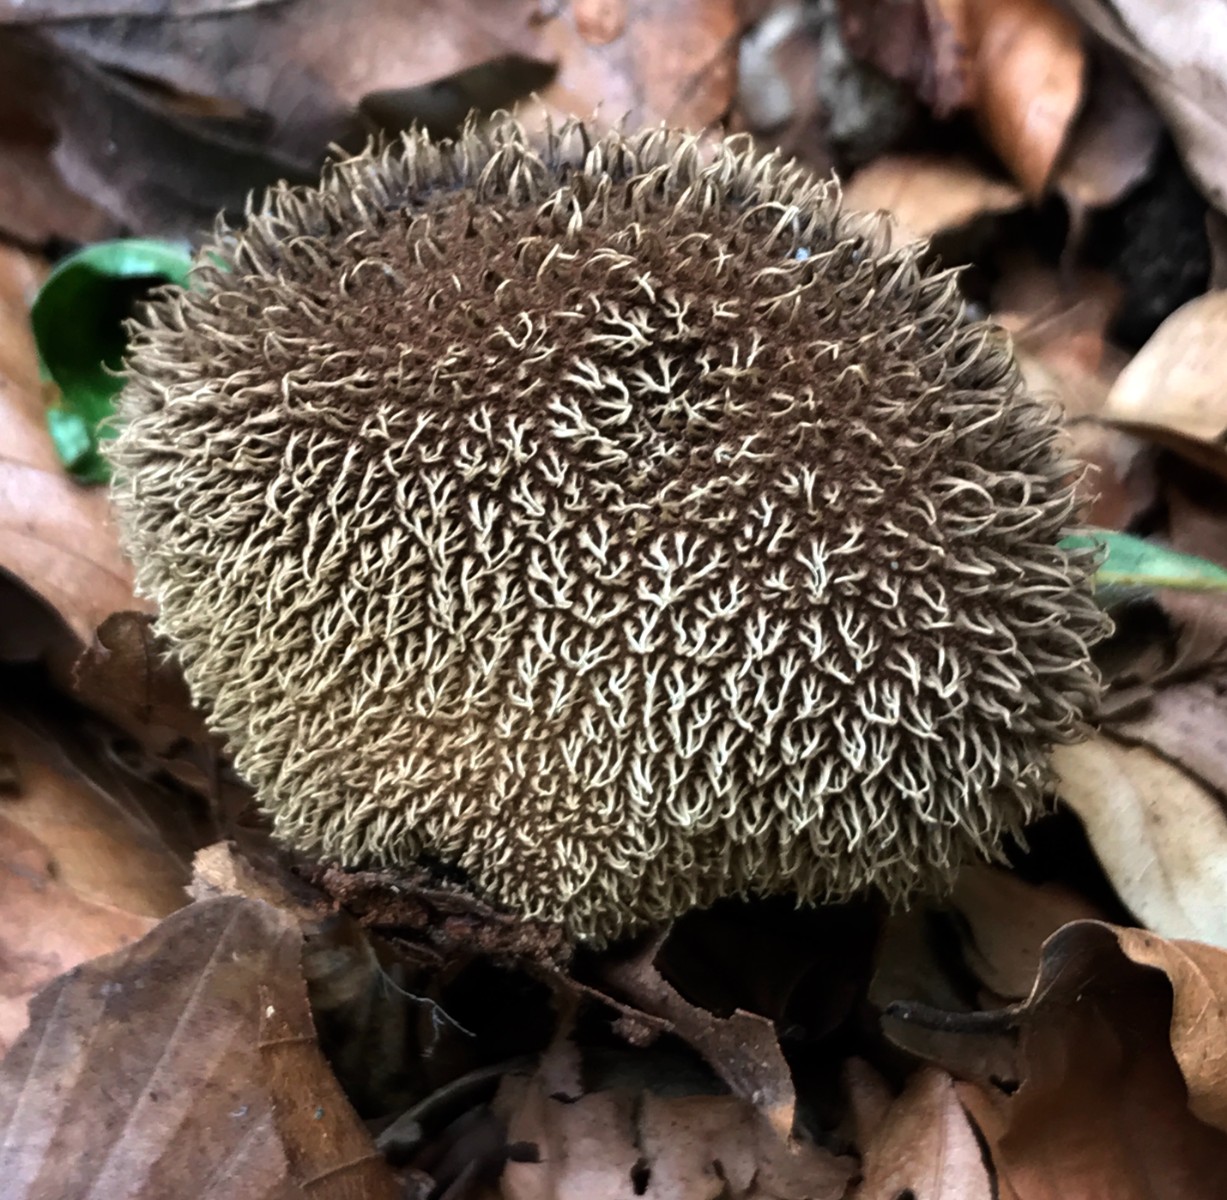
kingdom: Fungi
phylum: Basidiomycota
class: Agaricomycetes
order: Agaricales
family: Lycoperdaceae
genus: Lycoperdon
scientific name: Lycoperdon echinatum
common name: pindsvine-støvbold
